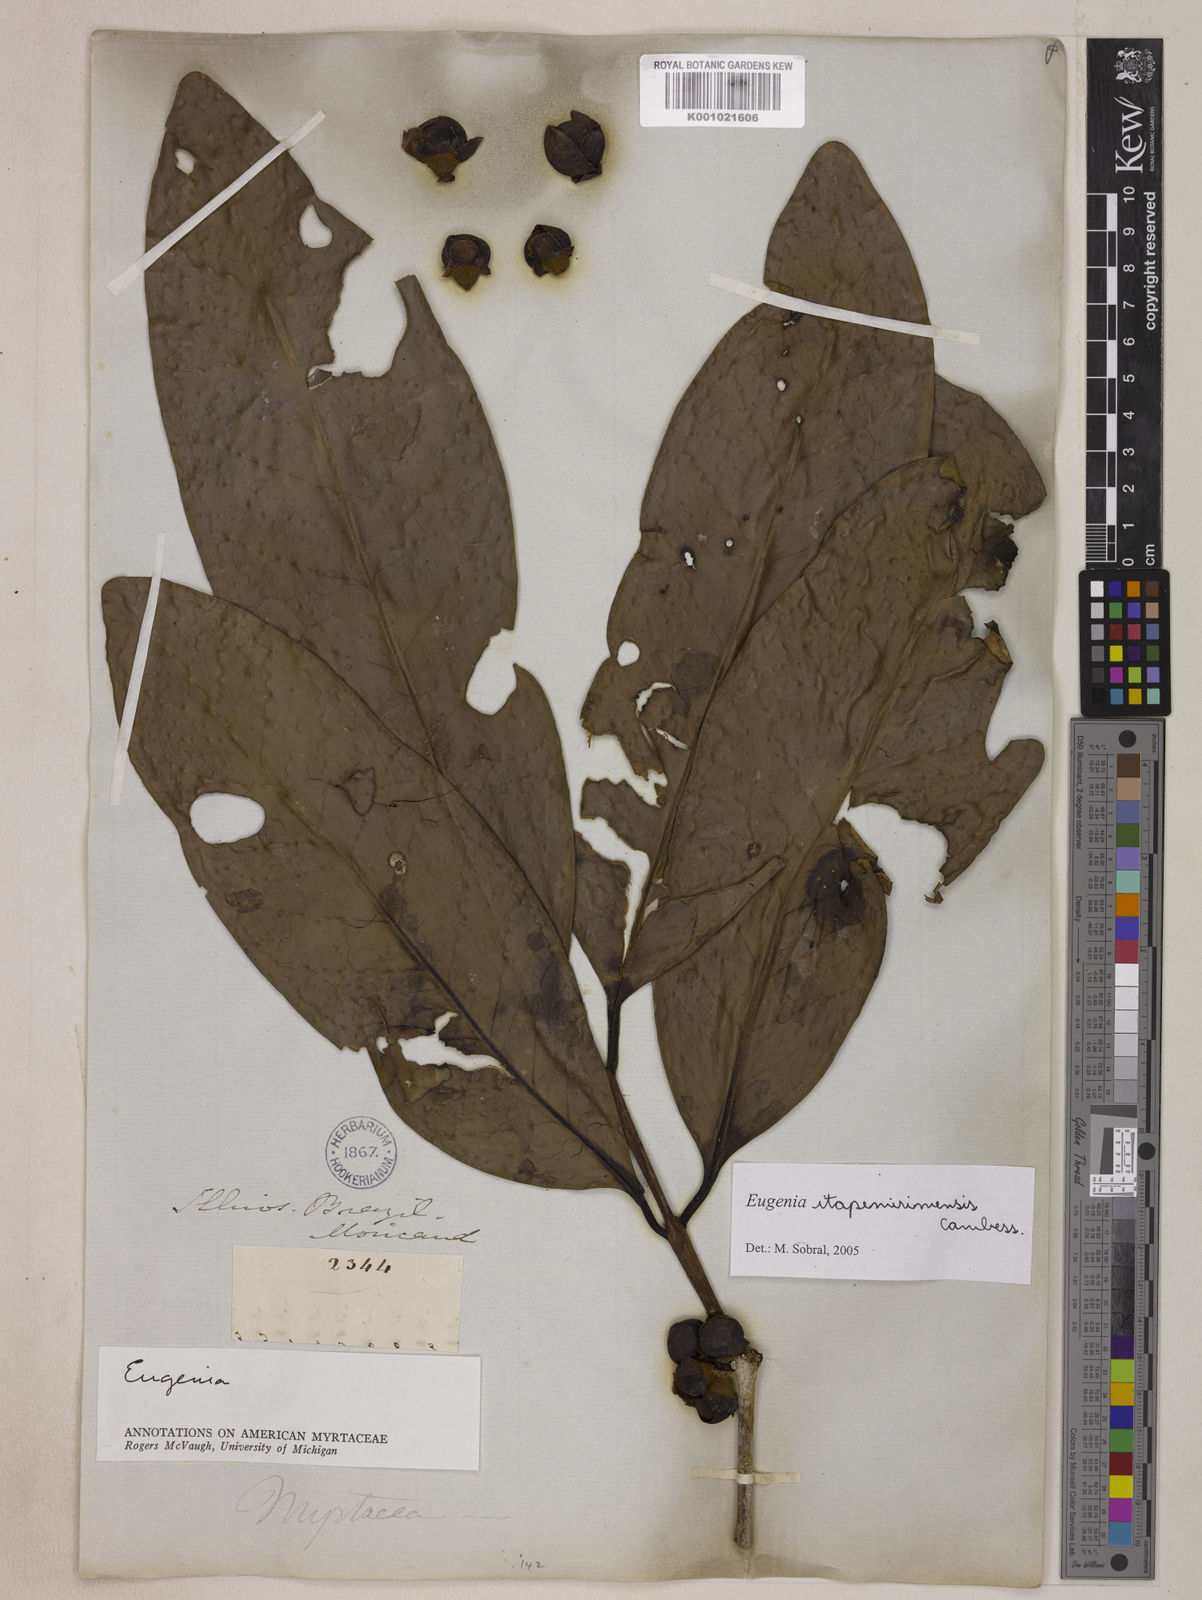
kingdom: Plantae
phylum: Tracheophyta
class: Magnoliopsida
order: Myrtales
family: Myrtaceae
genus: Eugenia
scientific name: Eugenia itapemirimensis
